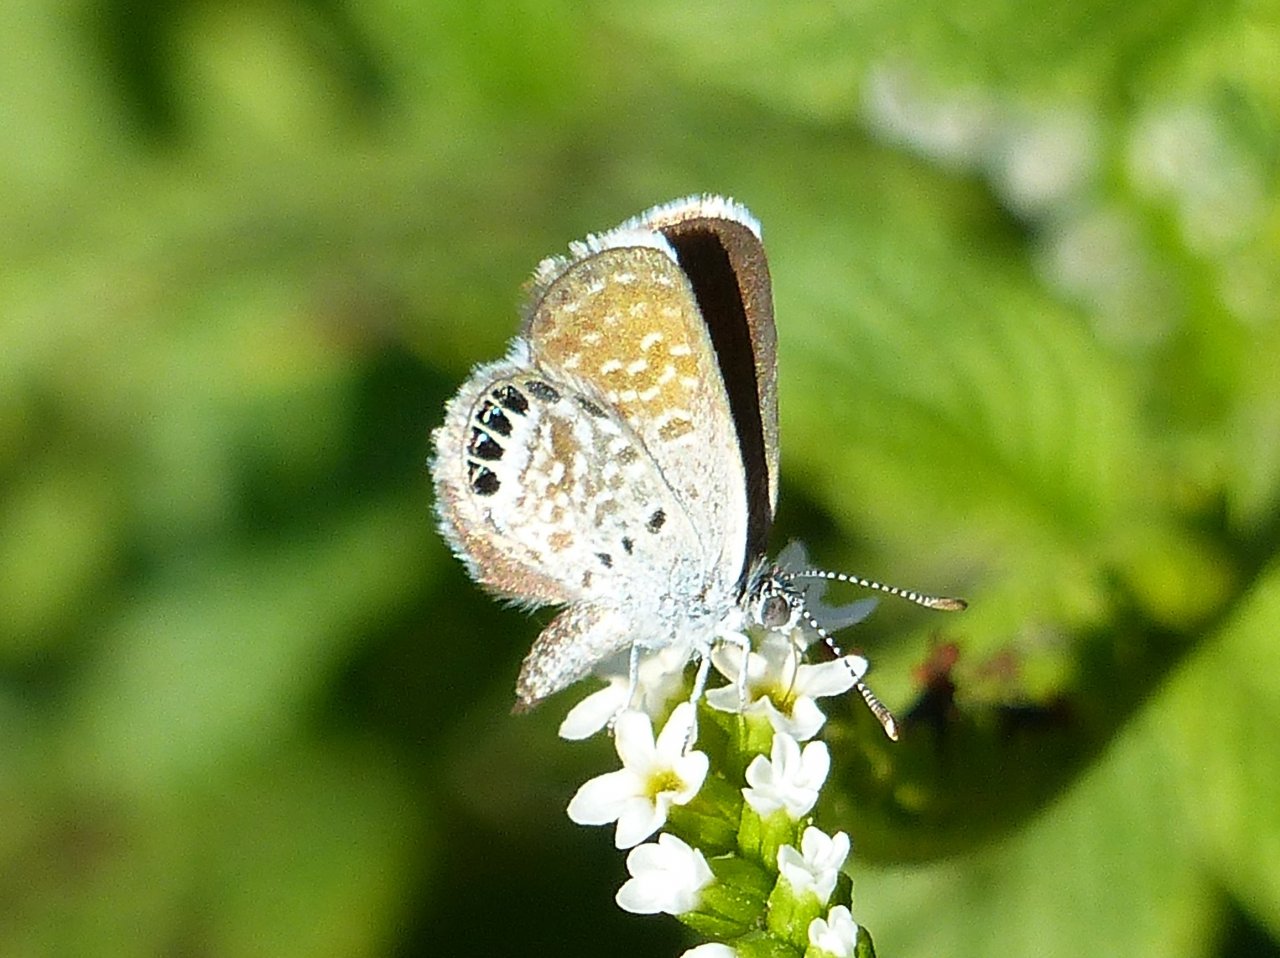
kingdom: Animalia
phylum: Arthropoda
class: Insecta
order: Lepidoptera
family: Lycaenidae
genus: Brephidium
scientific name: Brephidium exilis
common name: Western Pygmy-Blue
